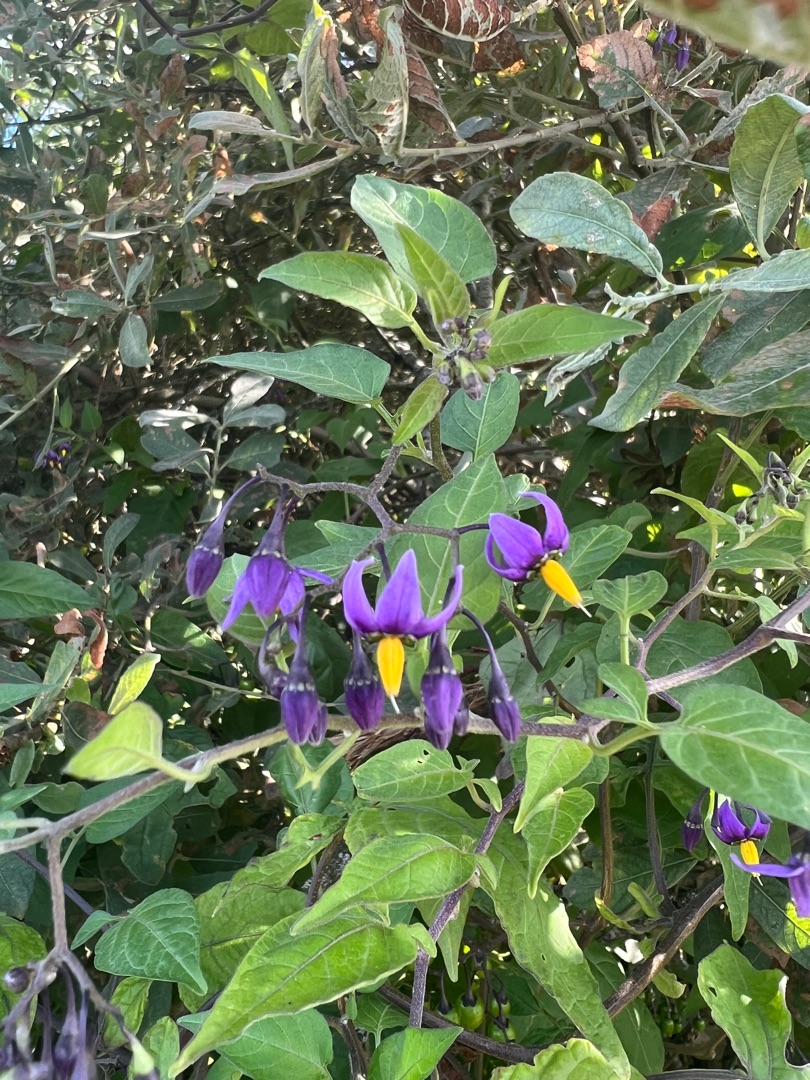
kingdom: Plantae
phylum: Tracheophyta
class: Magnoliopsida
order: Solanales
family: Solanaceae
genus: Solanum
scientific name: Solanum dulcamara
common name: Bittersød natskygge
